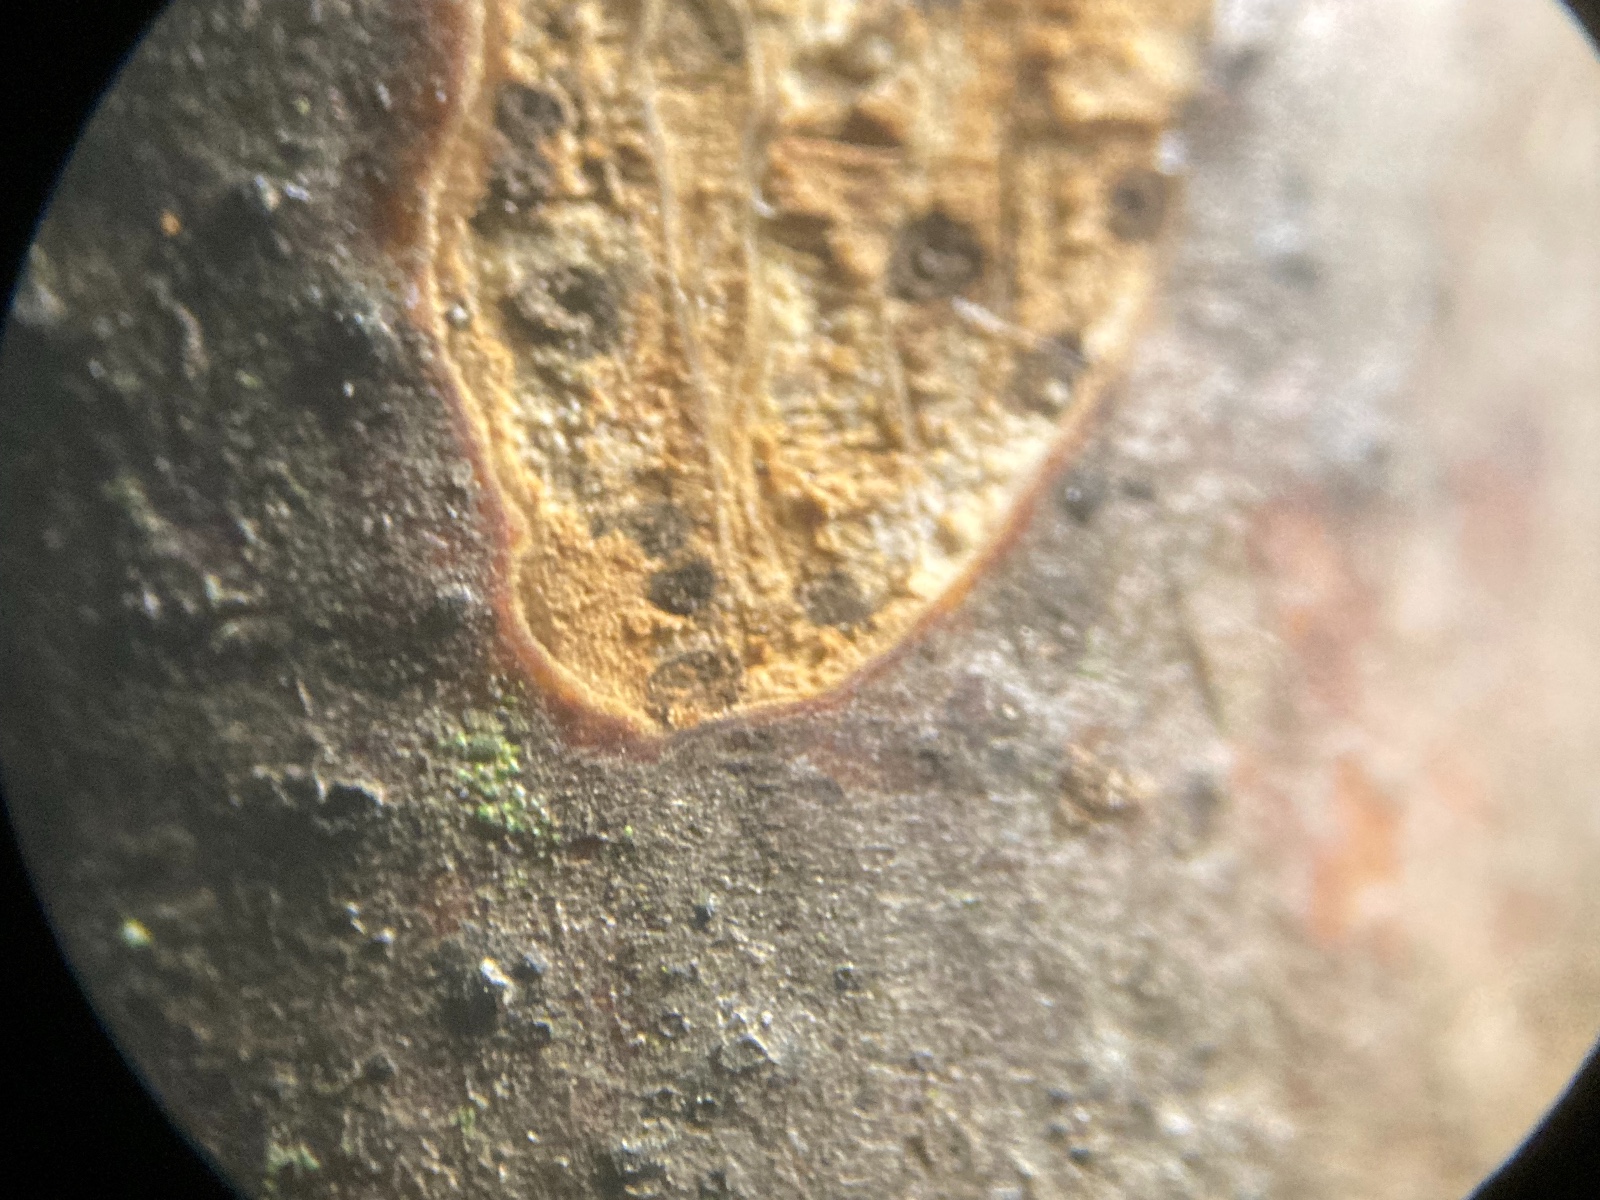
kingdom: Fungi
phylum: Ascomycota
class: Eurotiomycetes
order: Pyrenulales
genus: Splanchospora
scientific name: Splanchospora ampullacea
